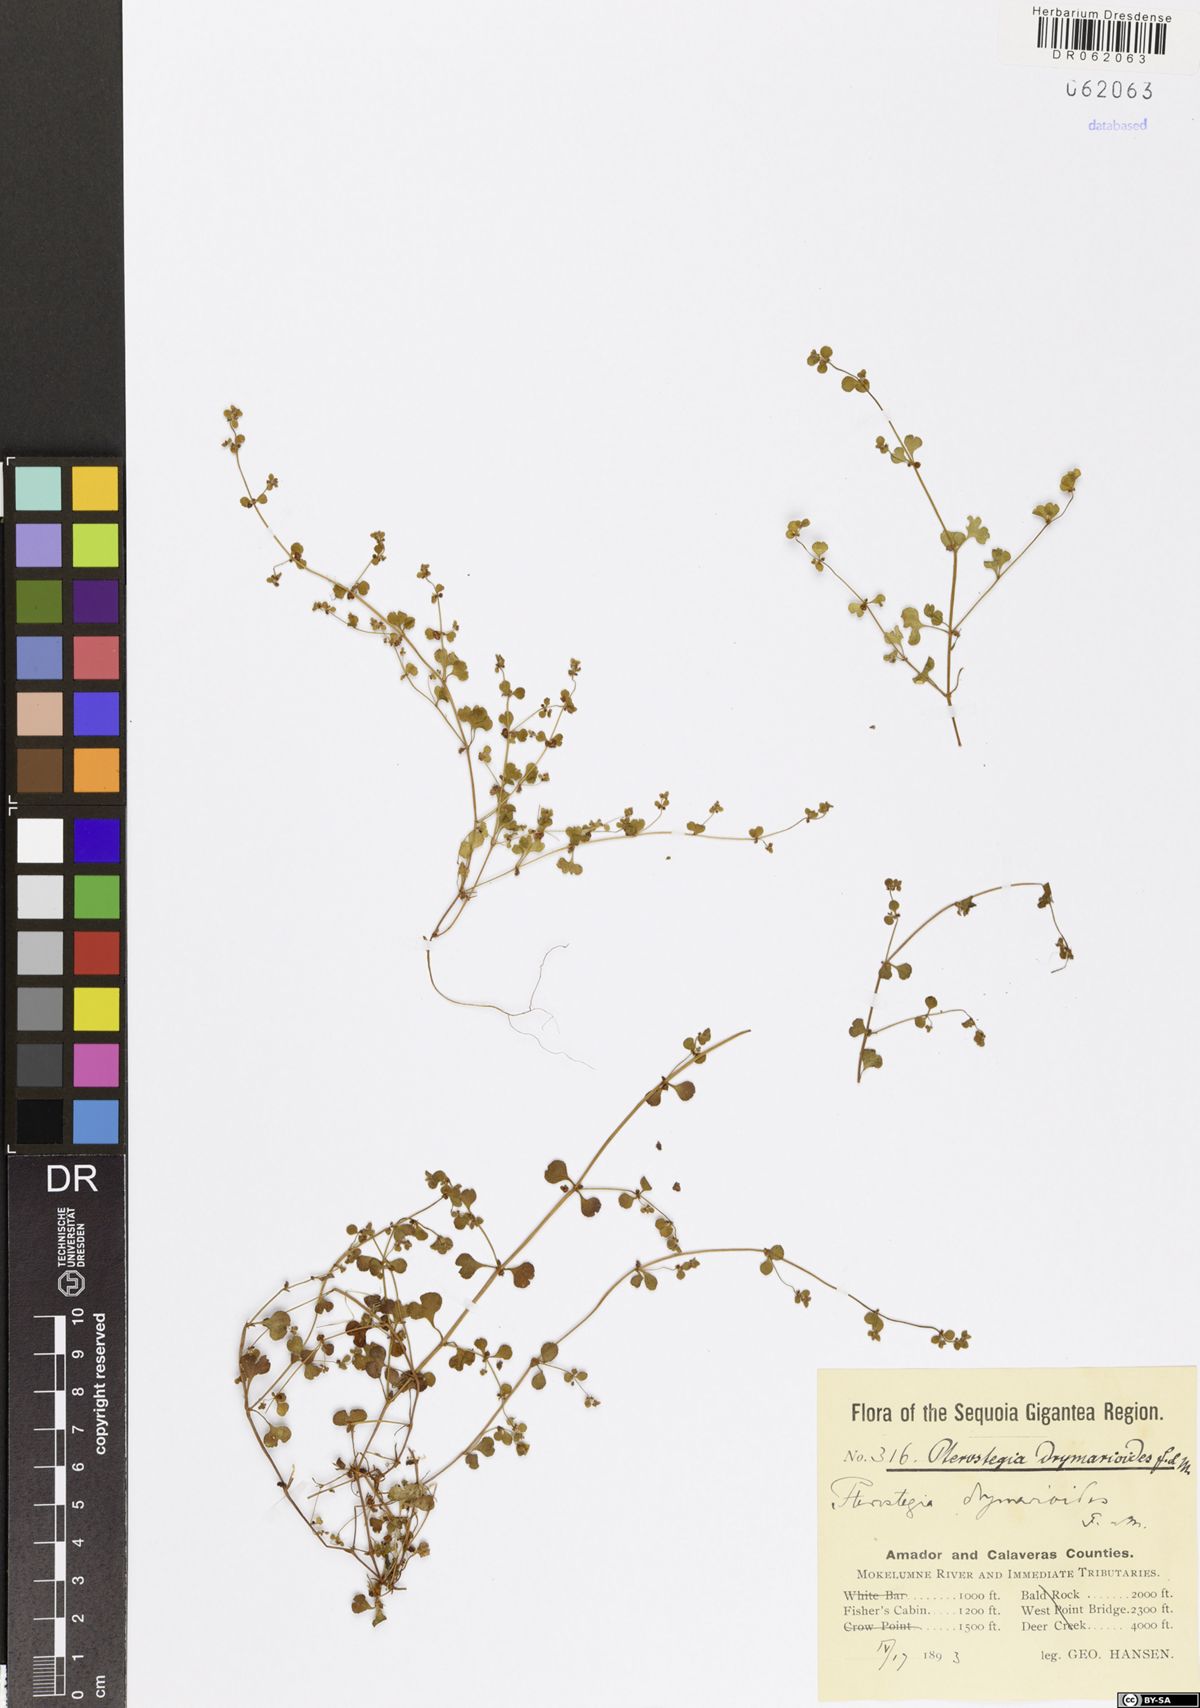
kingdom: Plantae
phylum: Tracheophyta
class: Magnoliopsida
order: Caryophyllales
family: Polygonaceae
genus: Pterostegia
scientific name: Pterostegia drymarioides
